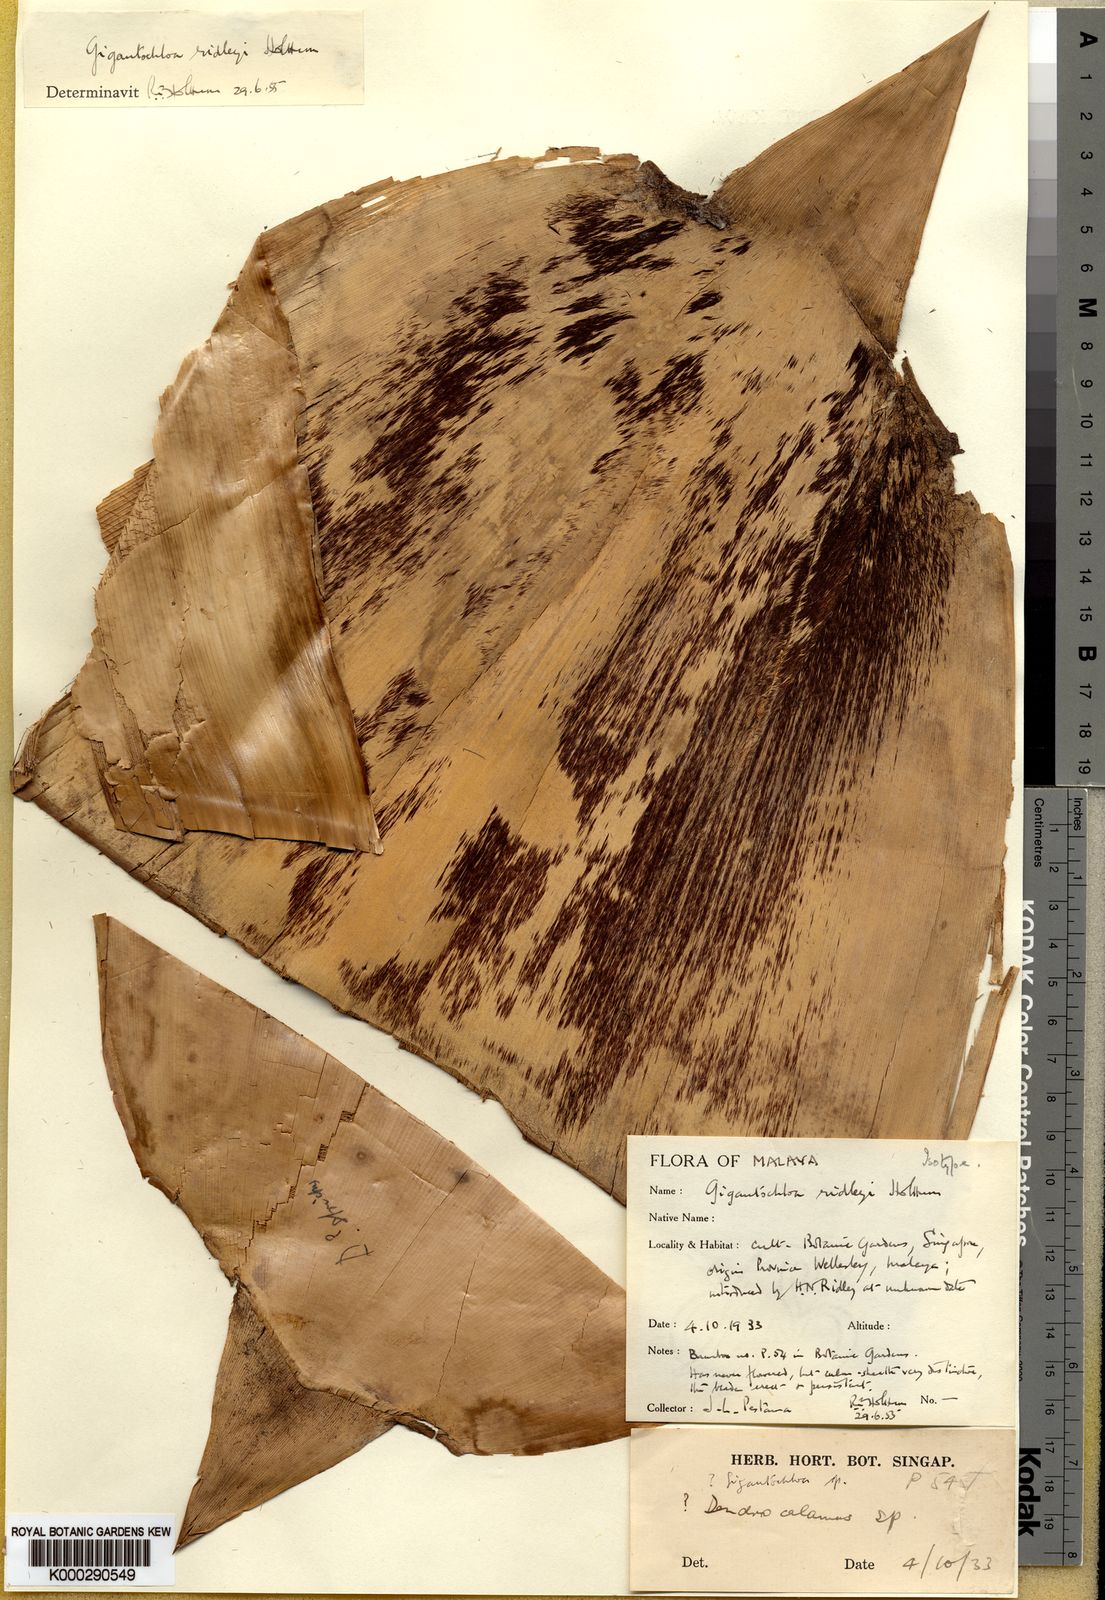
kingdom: Plantae
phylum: Tracheophyta
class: Liliopsida
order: Poales
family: Poaceae
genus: Gigantochloa
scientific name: Gigantochloa ridleyi
